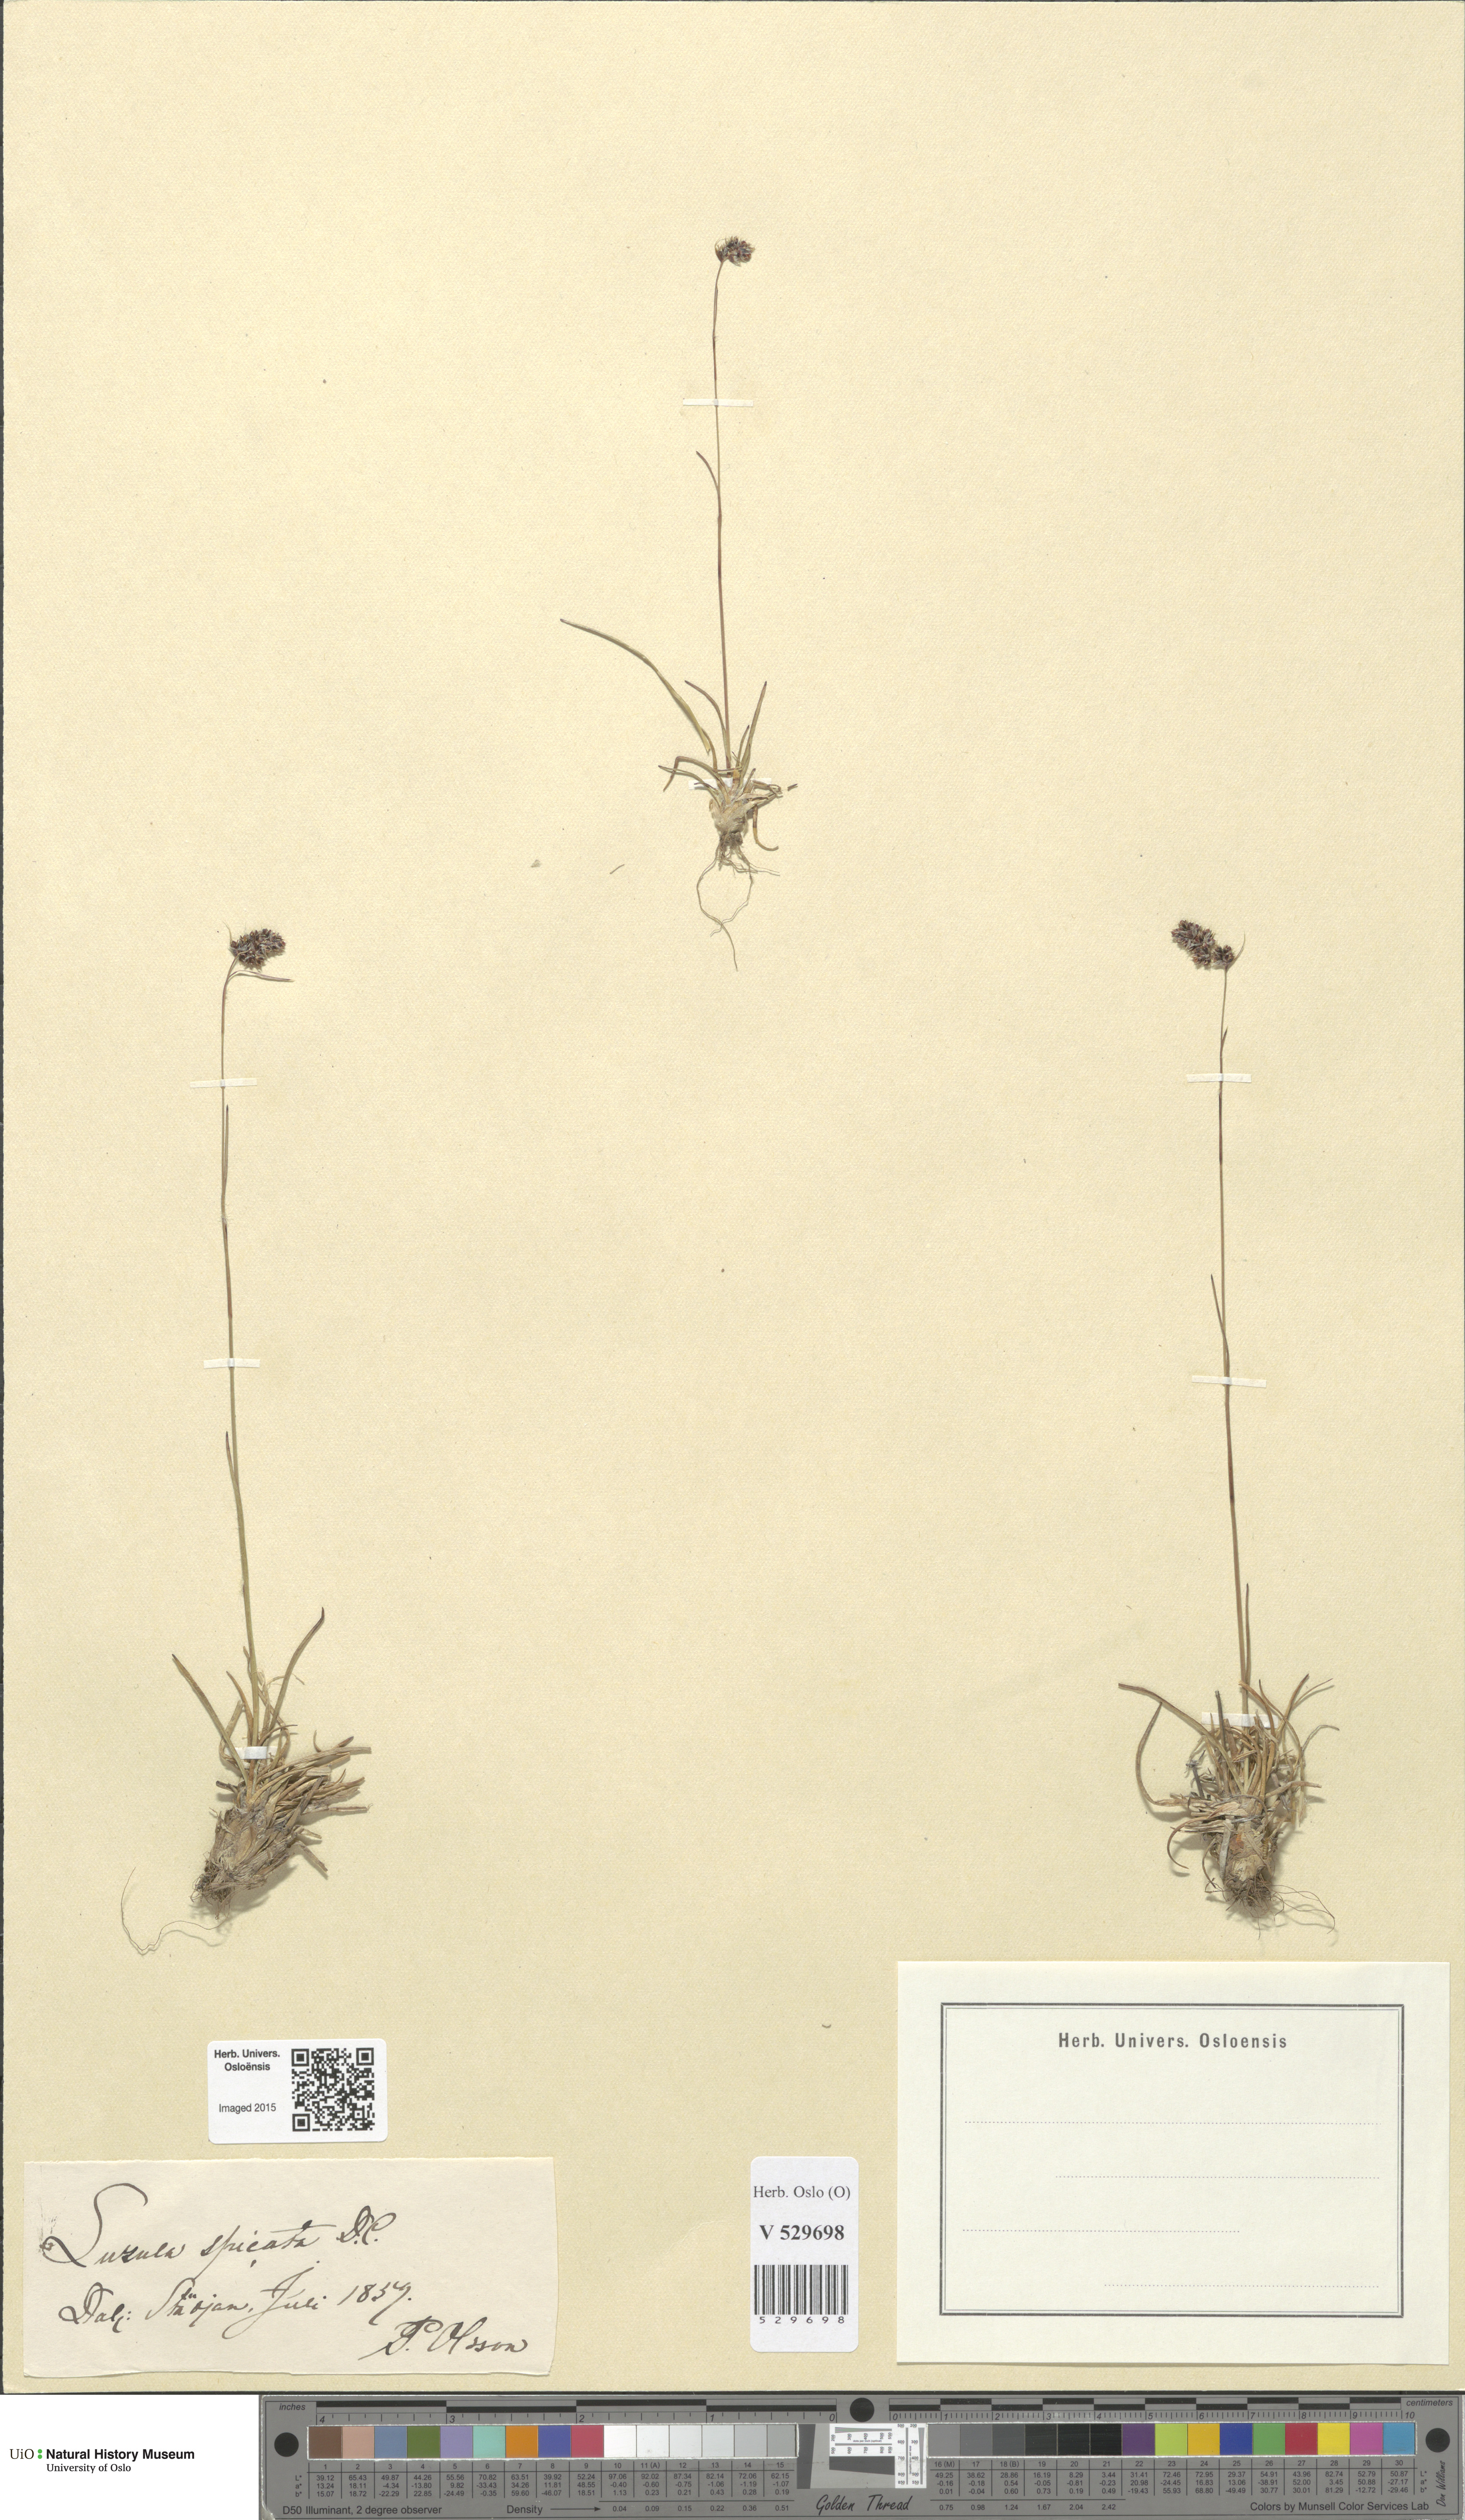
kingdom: Plantae
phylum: Tracheophyta
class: Liliopsida
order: Poales
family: Juncaceae
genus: Luzula
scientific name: Luzula spicata
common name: Spiked wood-rush
